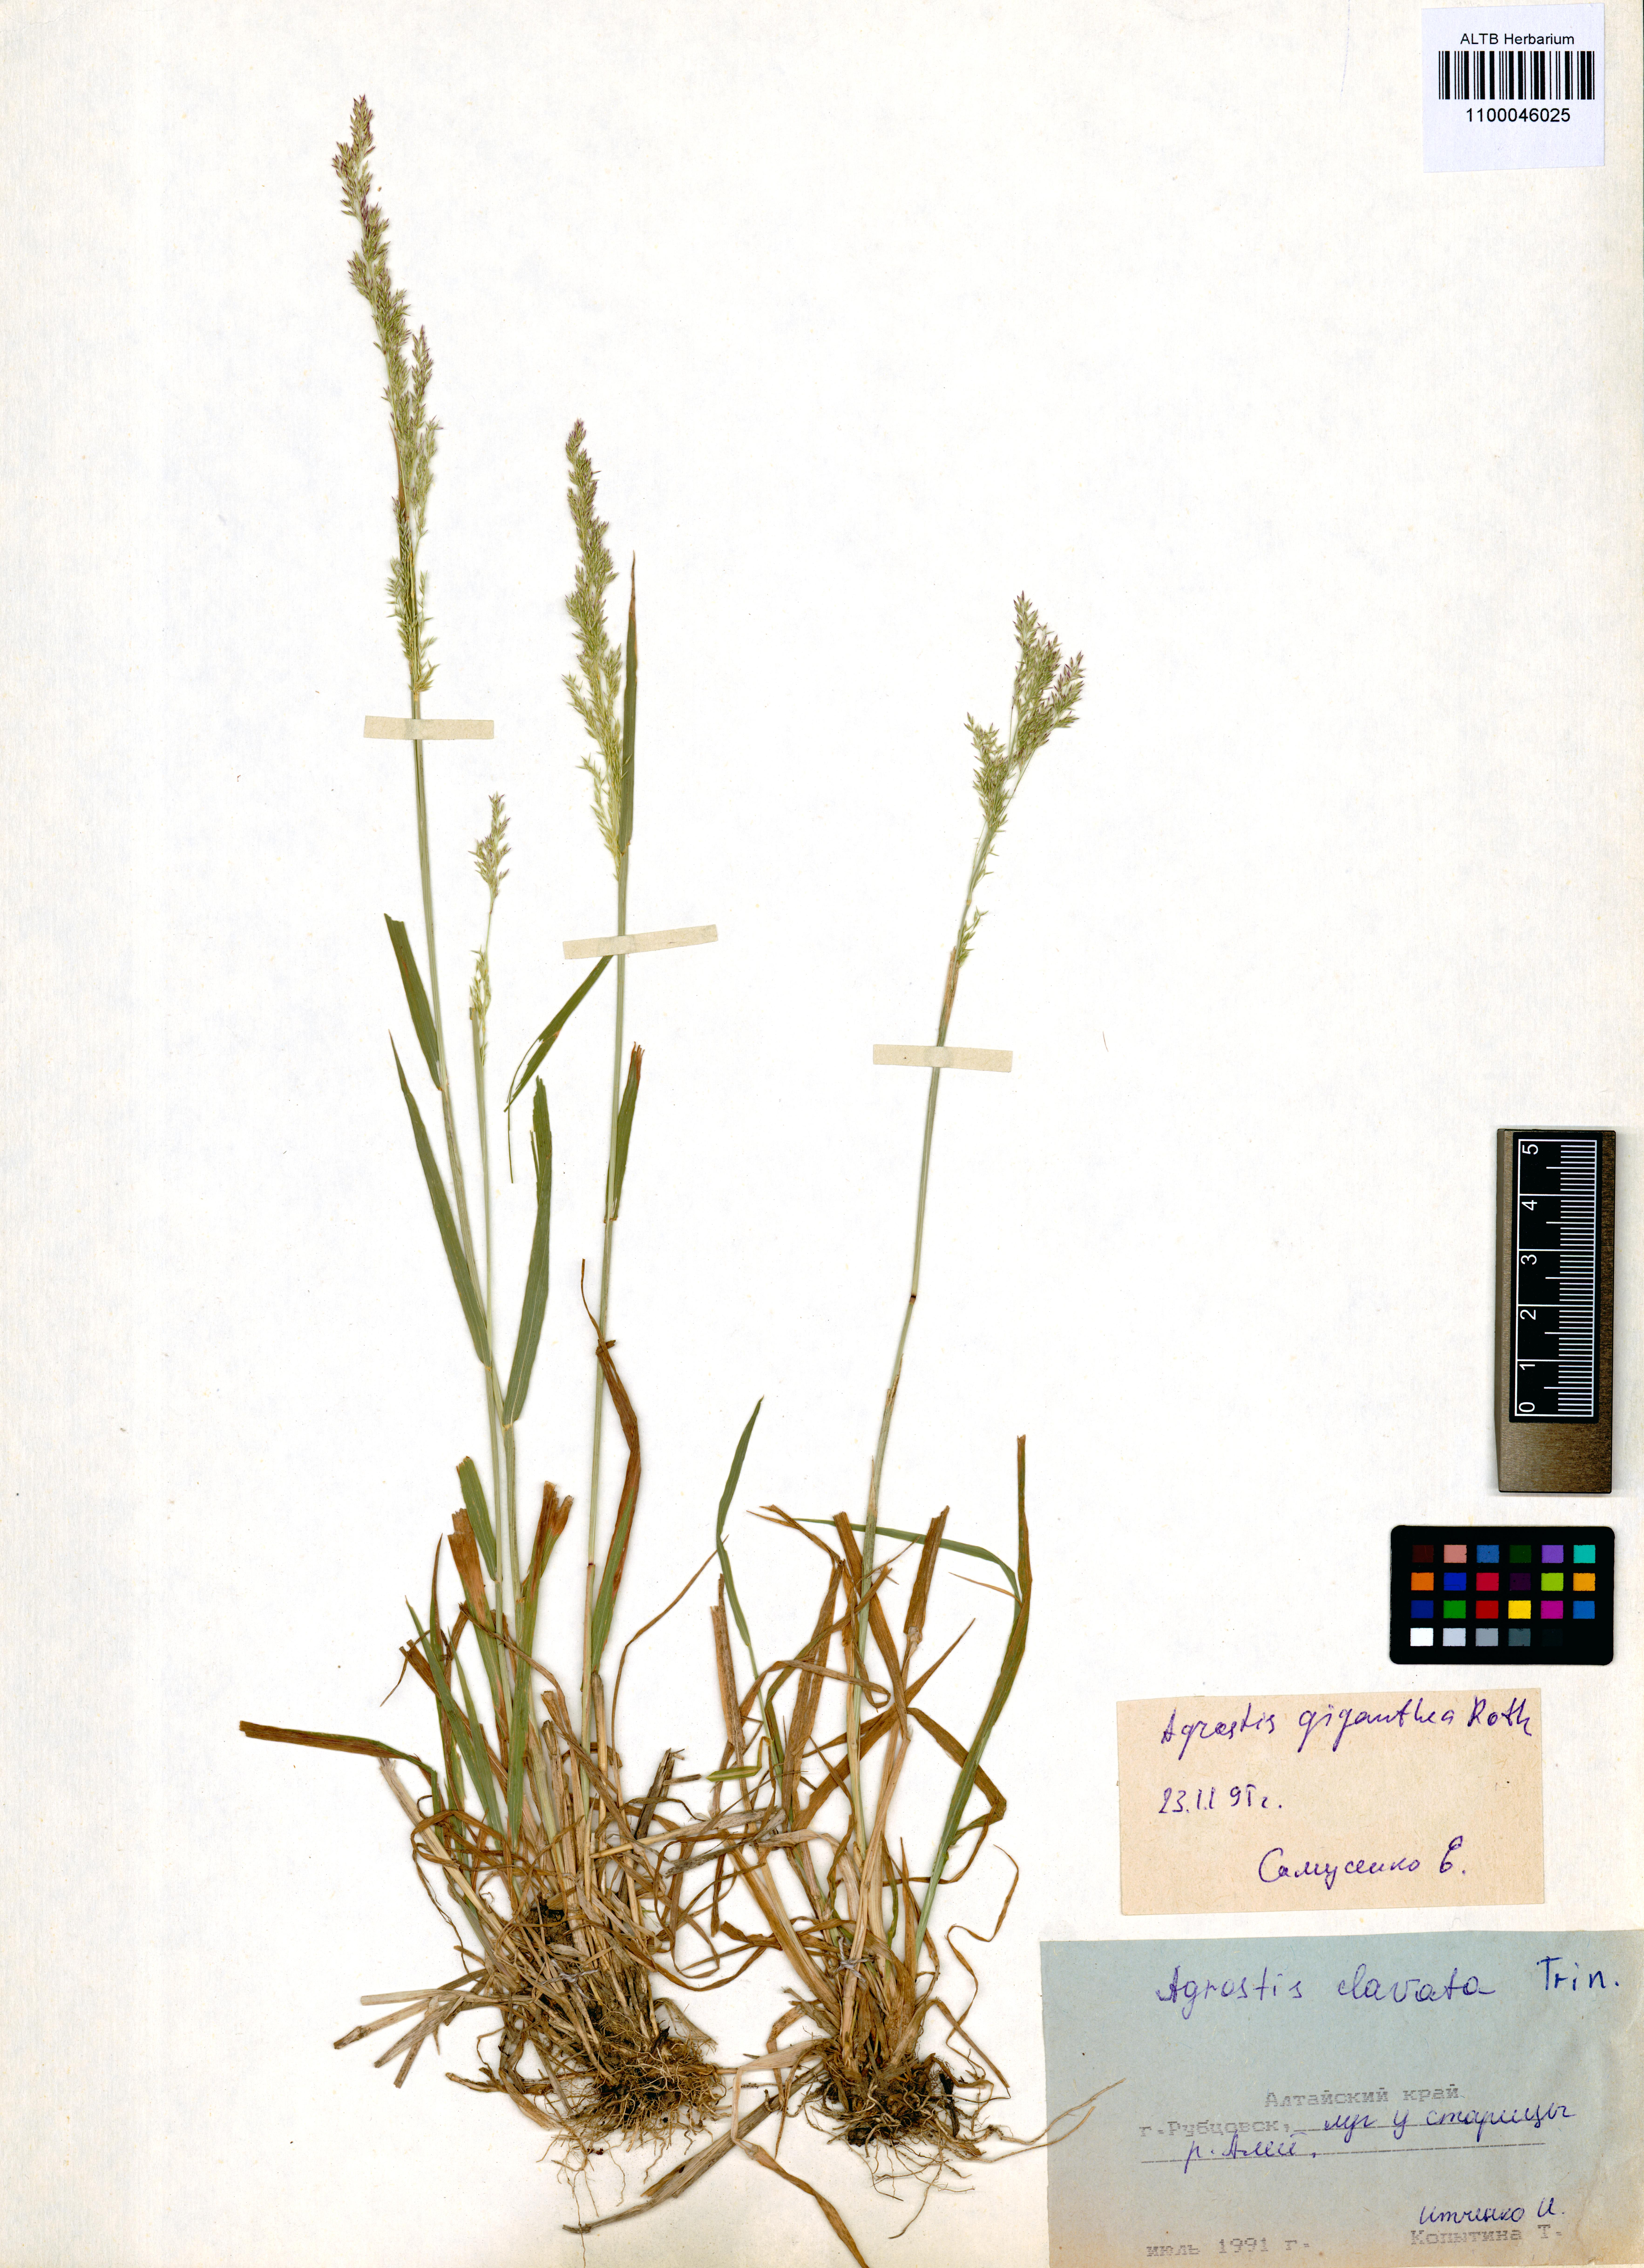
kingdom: Plantae
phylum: Tracheophyta
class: Liliopsida
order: Poales
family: Poaceae
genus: Agrostis
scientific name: Agrostis gigantea
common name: Black bent
